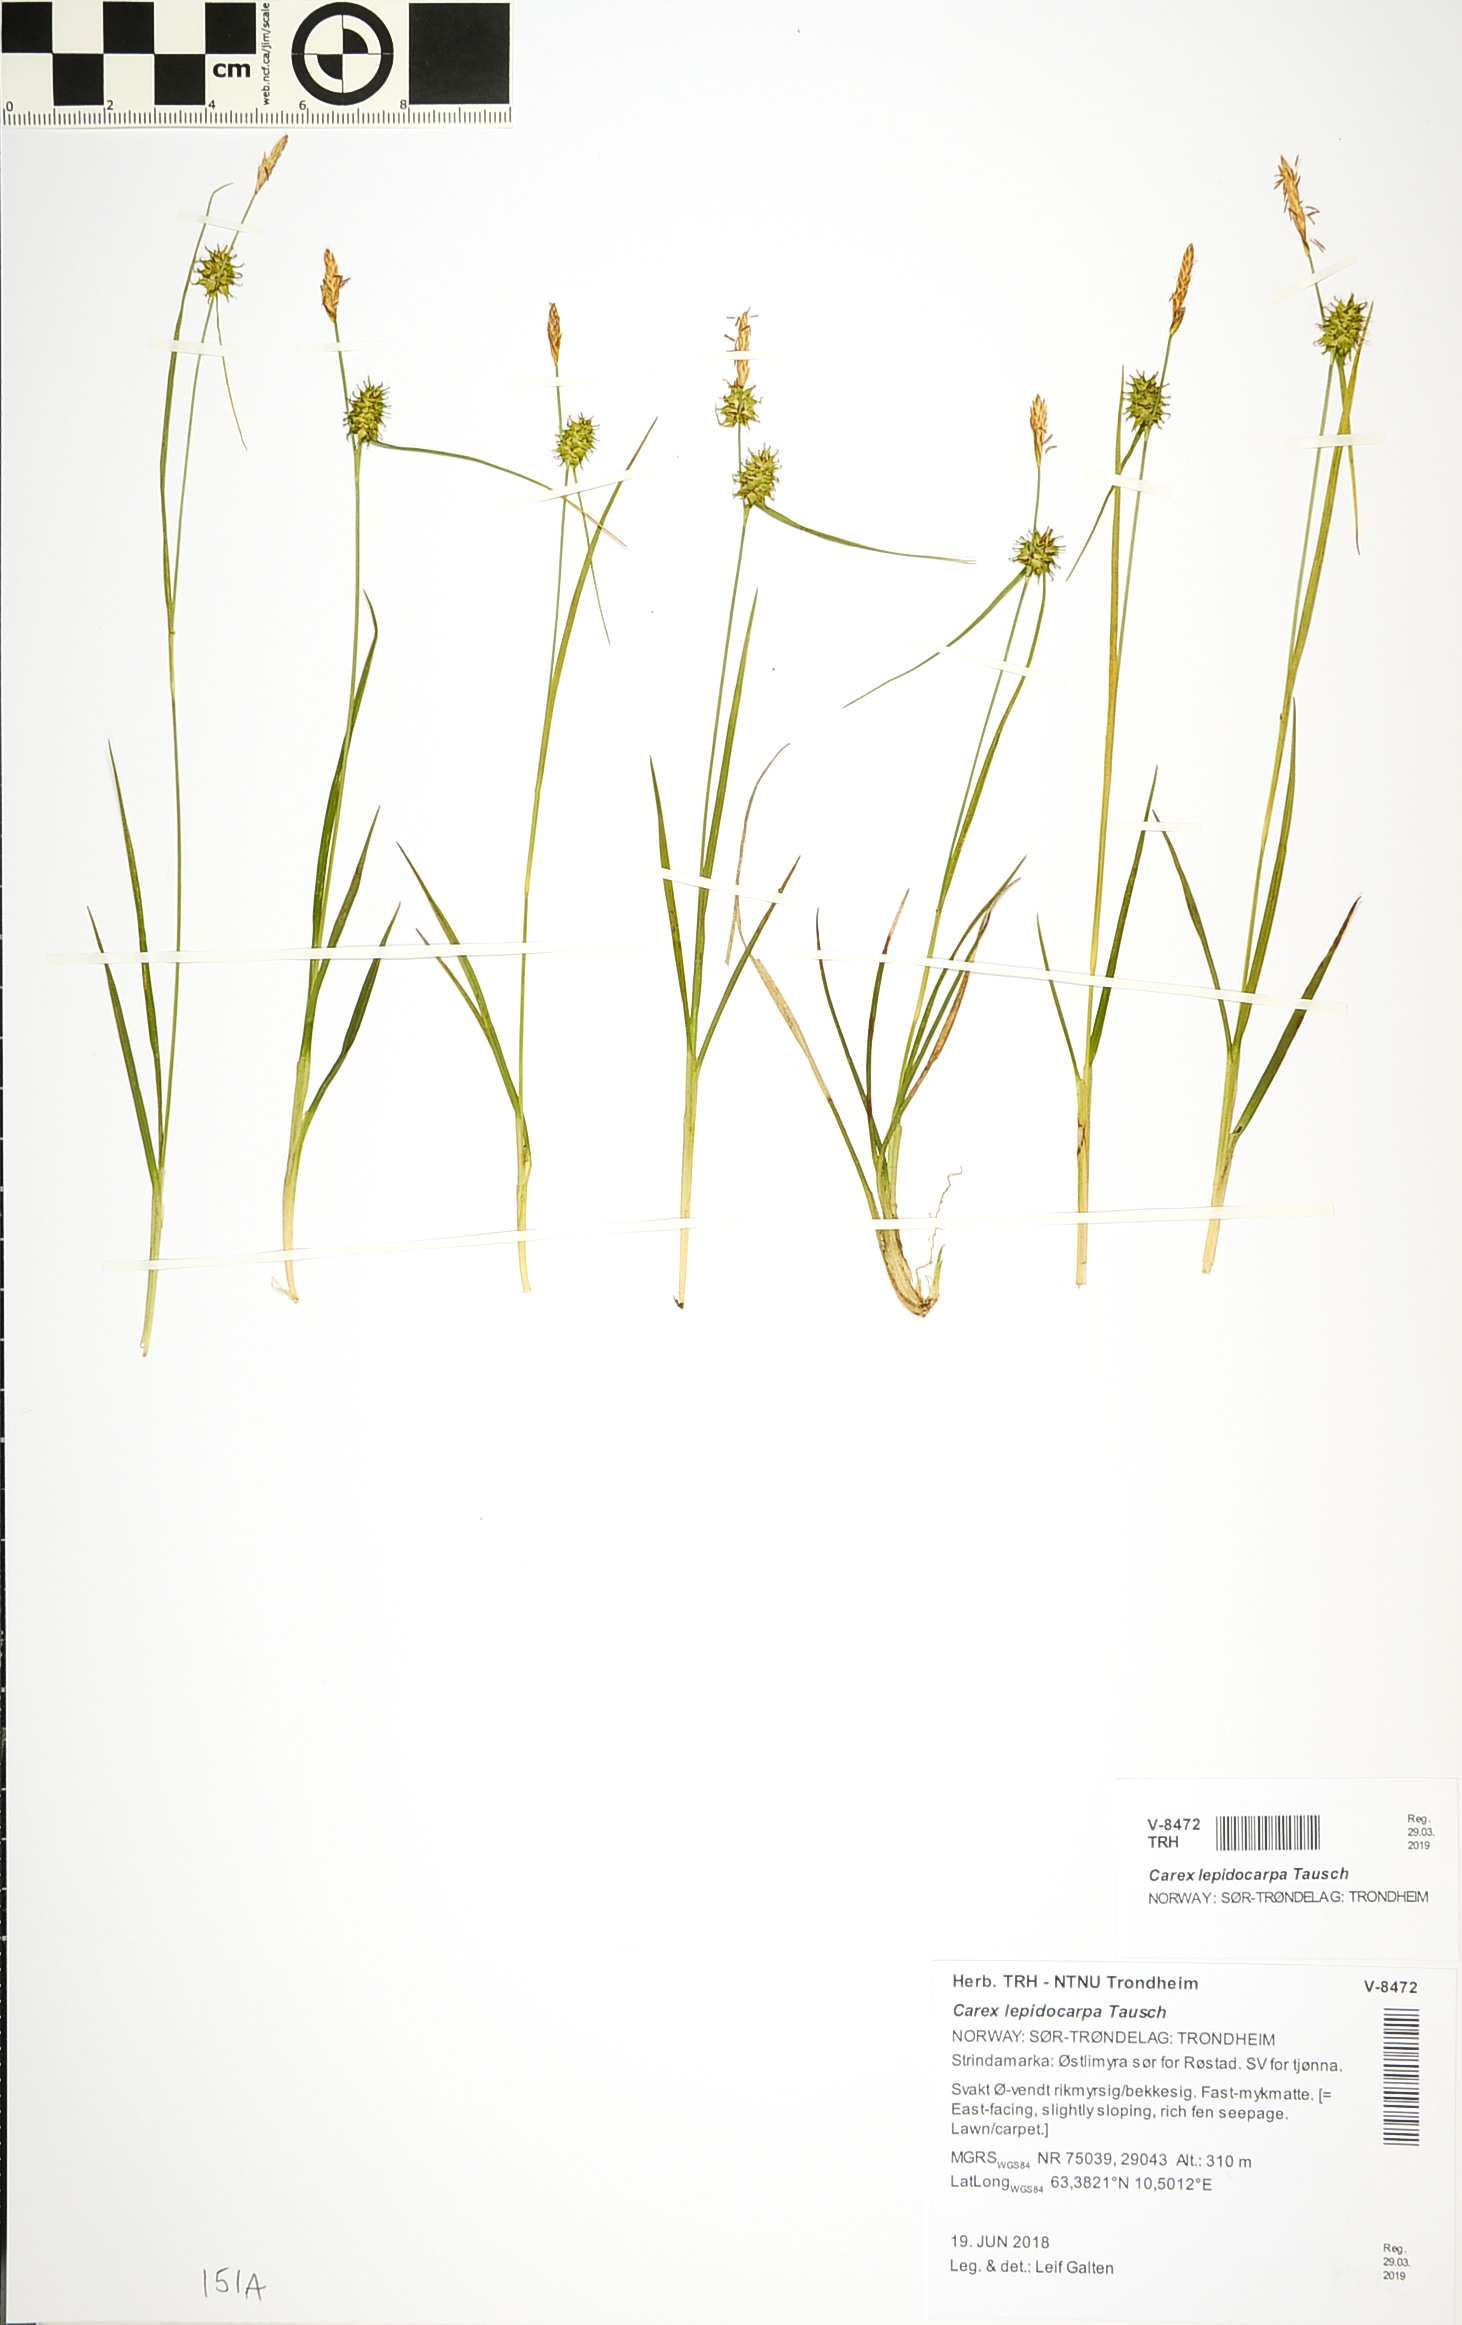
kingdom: Plantae
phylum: Tracheophyta
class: Liliopsida
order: Poales
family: Cyperaceae
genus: Carex
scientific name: Carex lepidocarpa
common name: Long-stalked yellow-sedge
